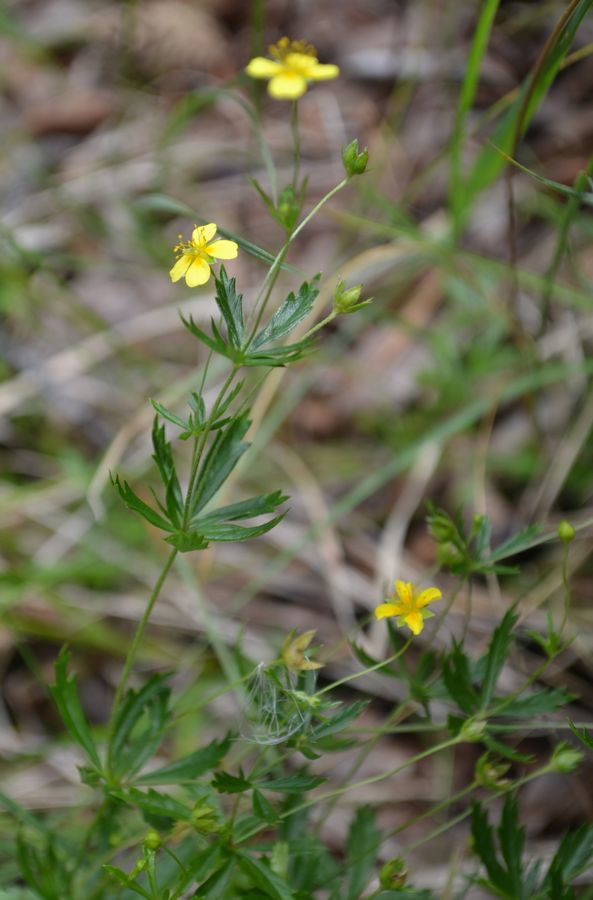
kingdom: Plantae
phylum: Tracheophyta
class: Magnoliopsida
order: Rosales
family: Rosaceae
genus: Potentilla
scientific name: Potentilla erecta
